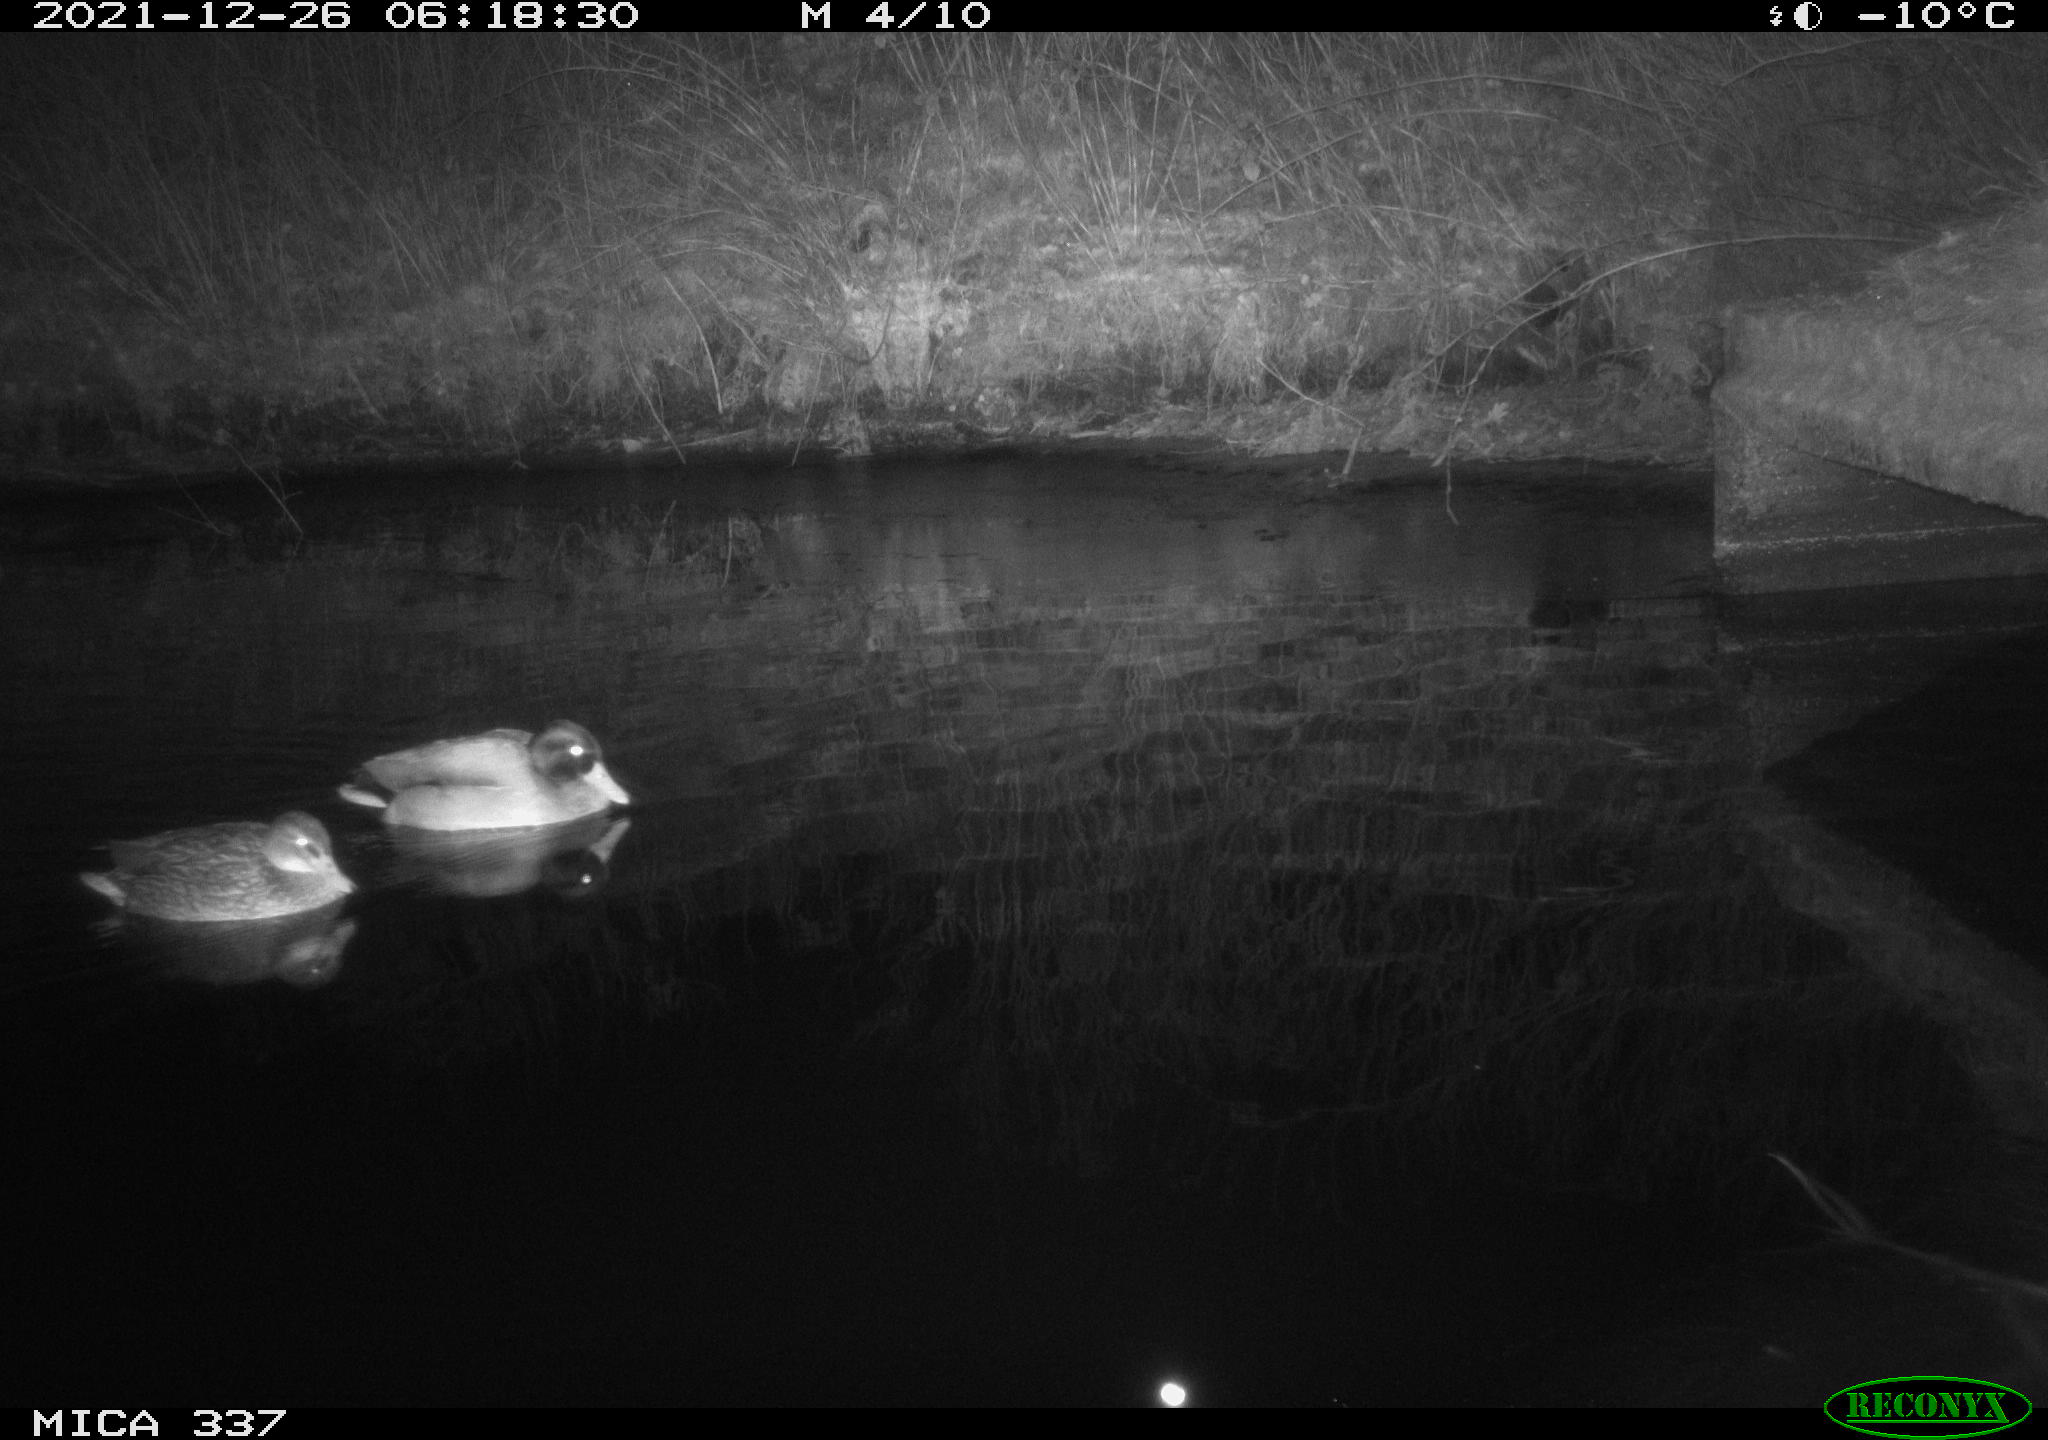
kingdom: Animalia
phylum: Chordata
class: Aves
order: Anseriformes
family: Anatidae
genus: Anas
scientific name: Anas platyrhynchos
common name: Mallard
